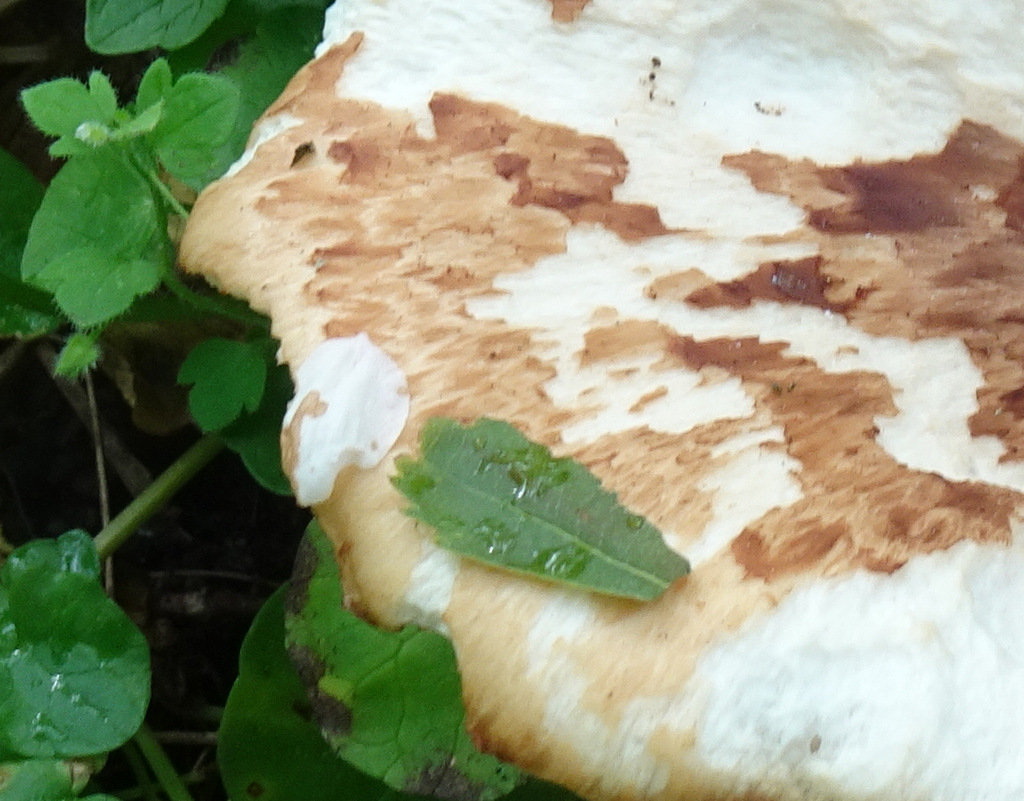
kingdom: Fungi
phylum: Basidiomycota
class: Agaricomycetes
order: Polyporales
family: Polyporaceae
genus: Cerioporus
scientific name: Cerioporus squamosus
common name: skællet stilkporesvamp
